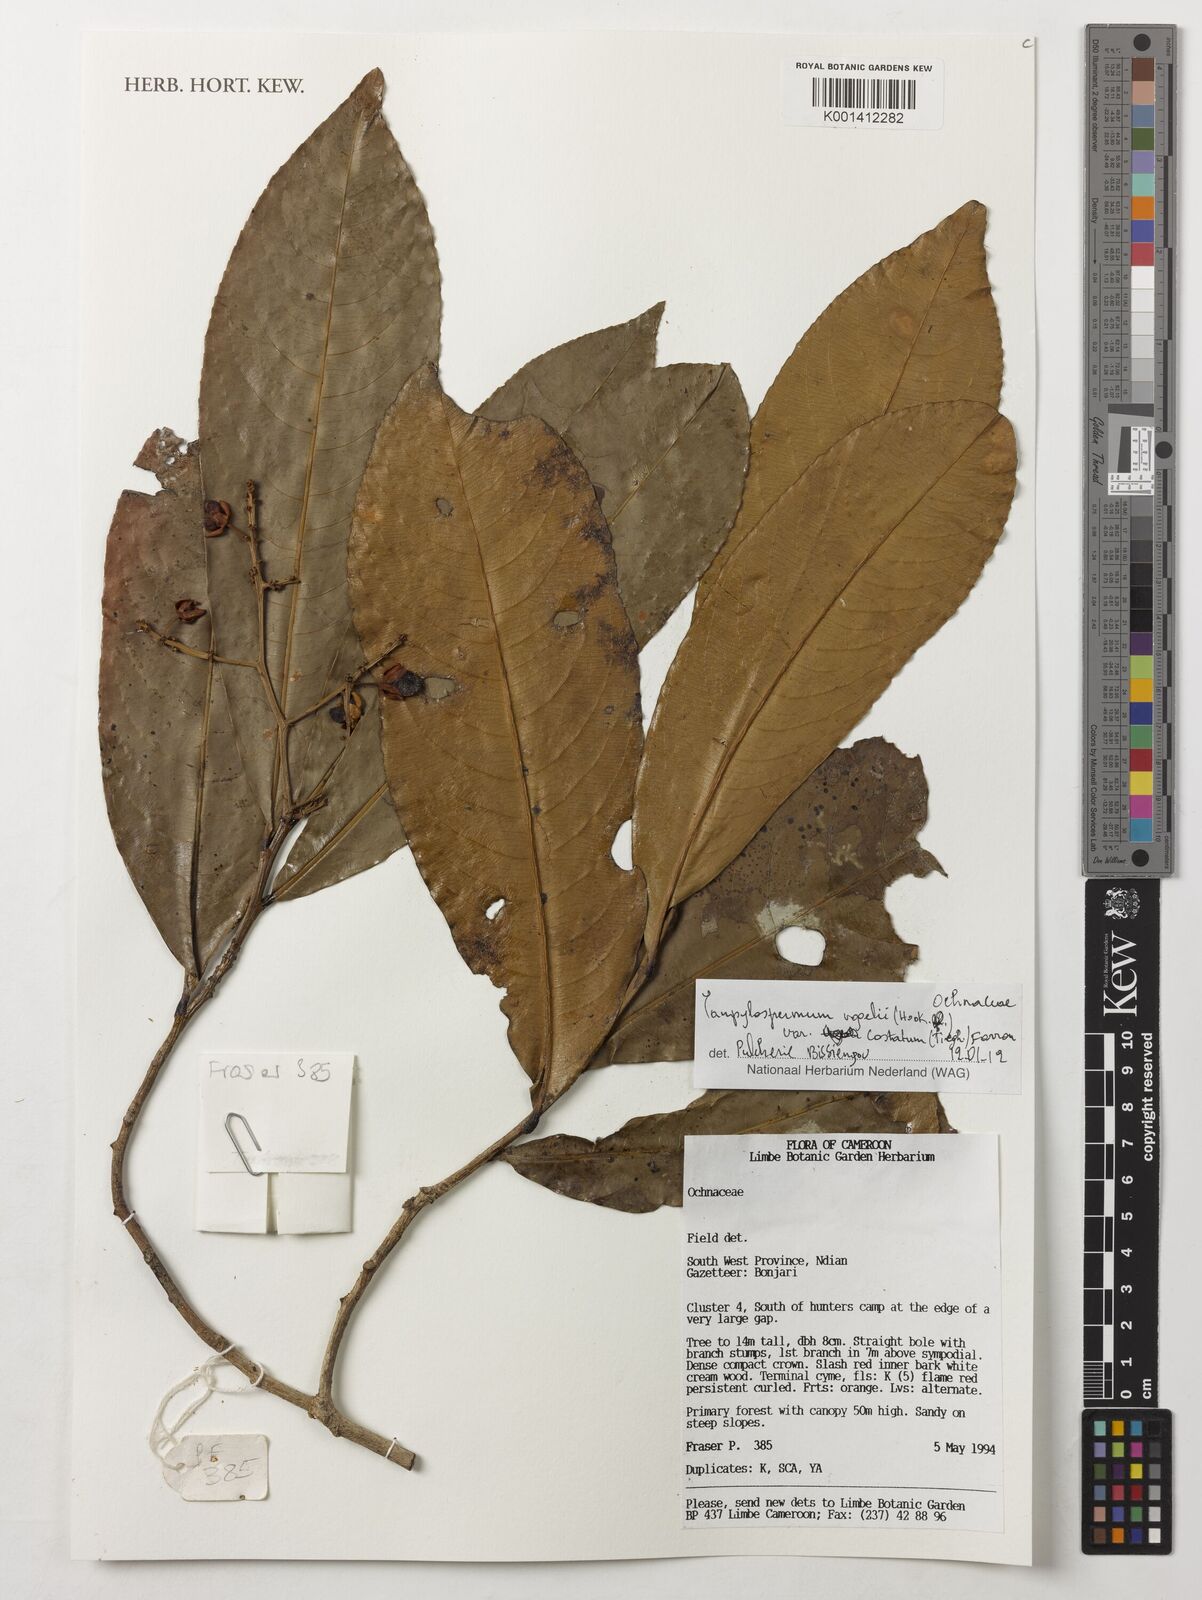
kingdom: Plantae
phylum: Tracheophyta
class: Magnoliopsida
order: Malpighiales
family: Ochnaceae
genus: Campylospermum
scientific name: Campylospermum vogelii
